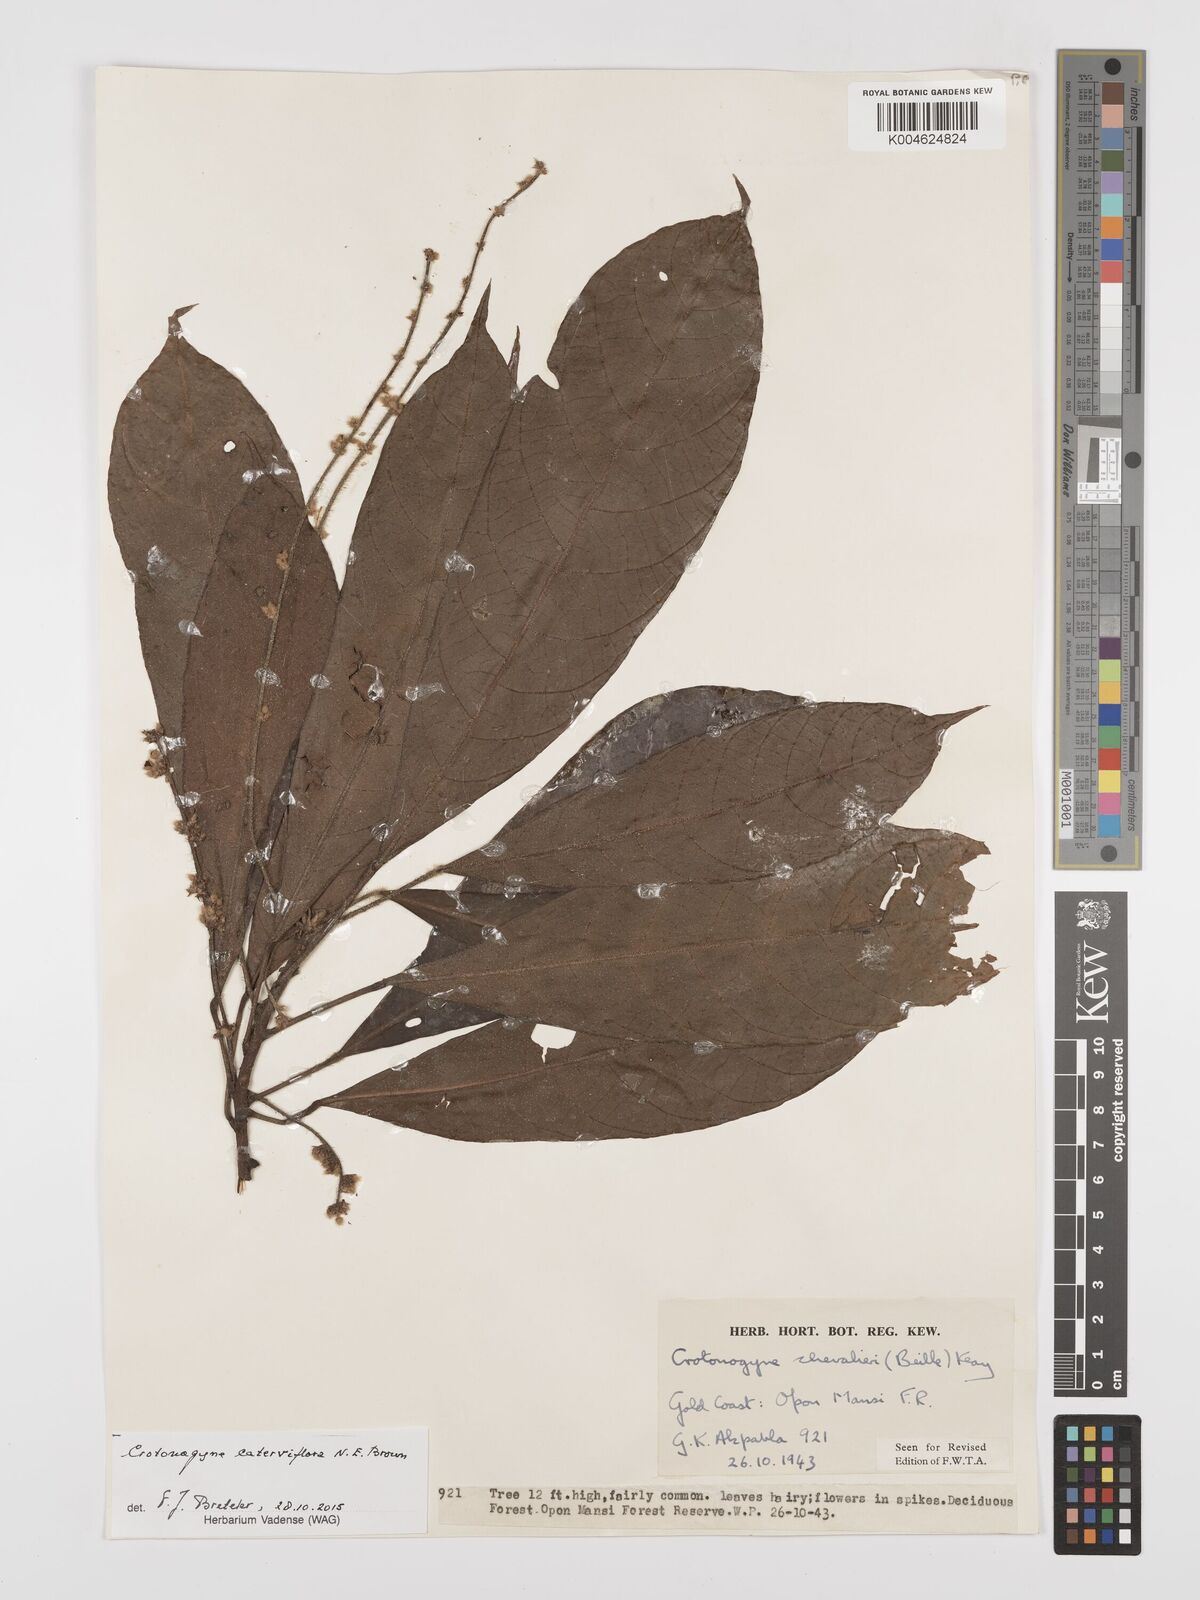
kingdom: Plantae
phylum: Tracheophyta
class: Magnoliopsida
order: Malpighiales
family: Euphorbiaceae
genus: Crotonogyne
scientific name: Crotonogyne caterviflora
